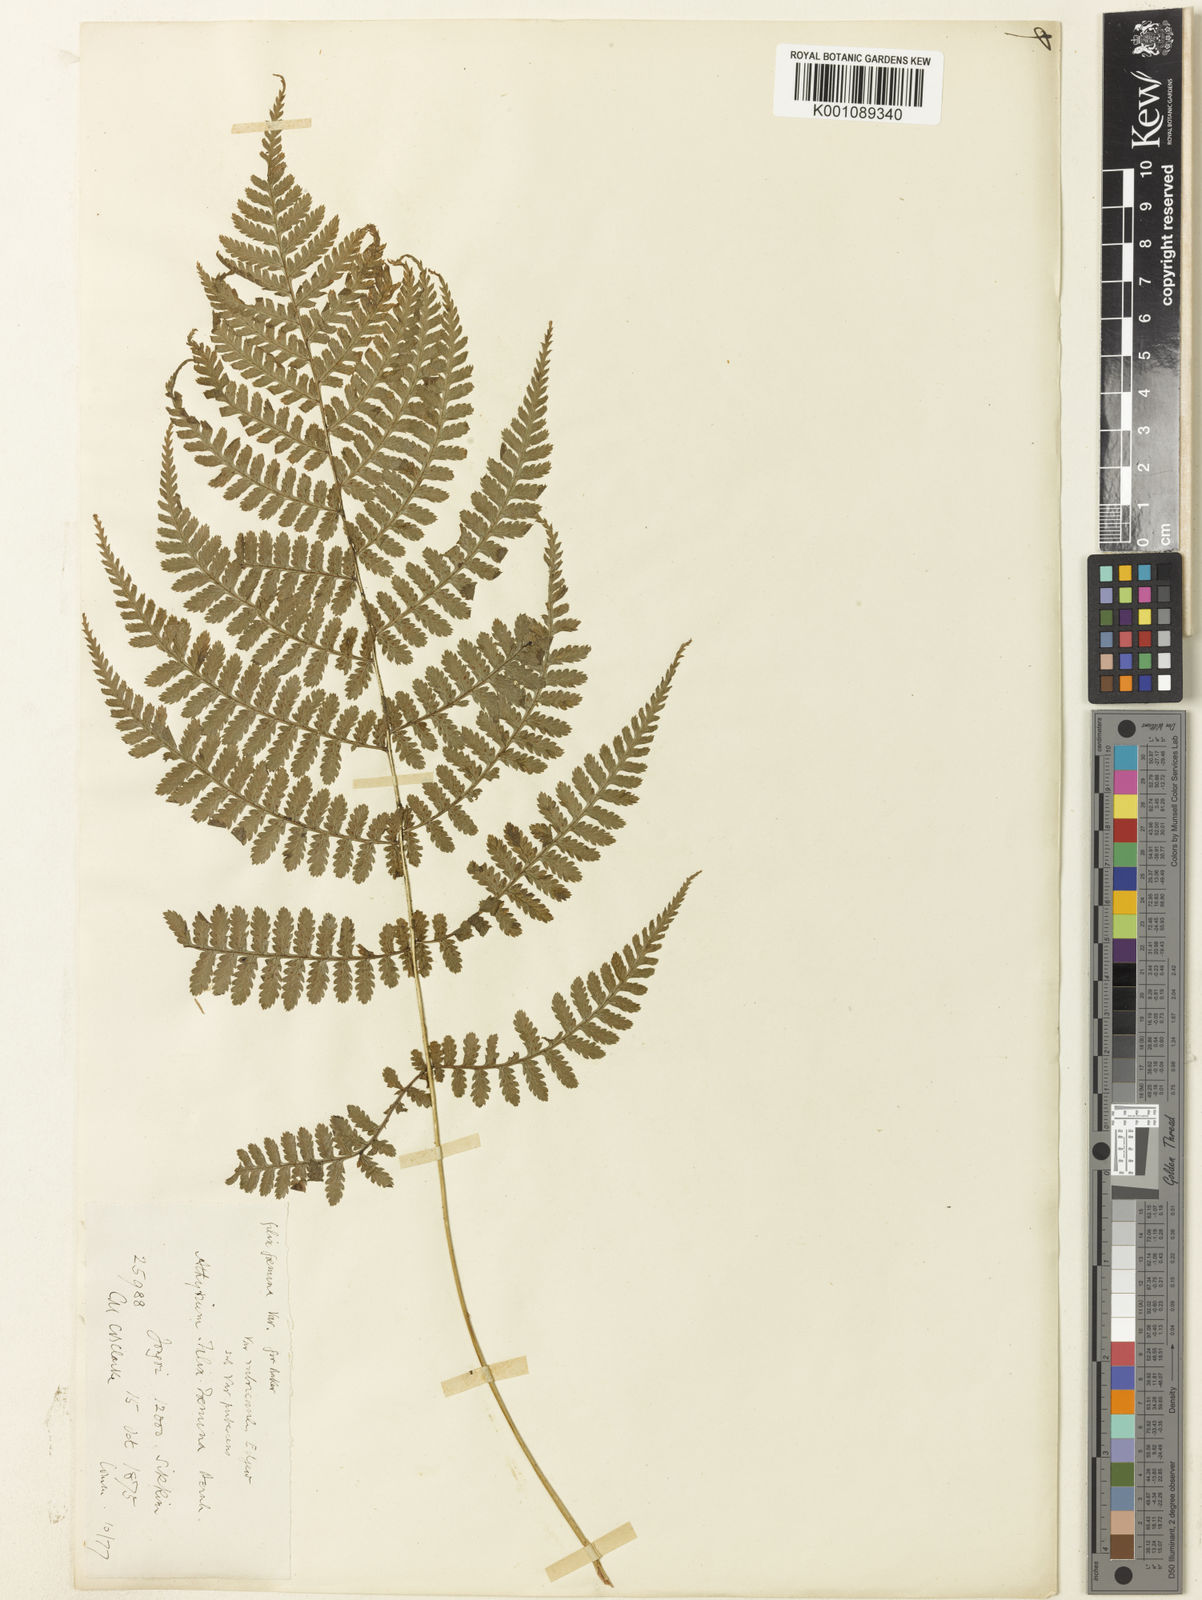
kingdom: Plantae
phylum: Tracheophyta
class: Polypodiopsida
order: Polypodiales
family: Athyriaceae
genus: Athyrium
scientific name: Athyrium filix-femina
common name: Lady fern
